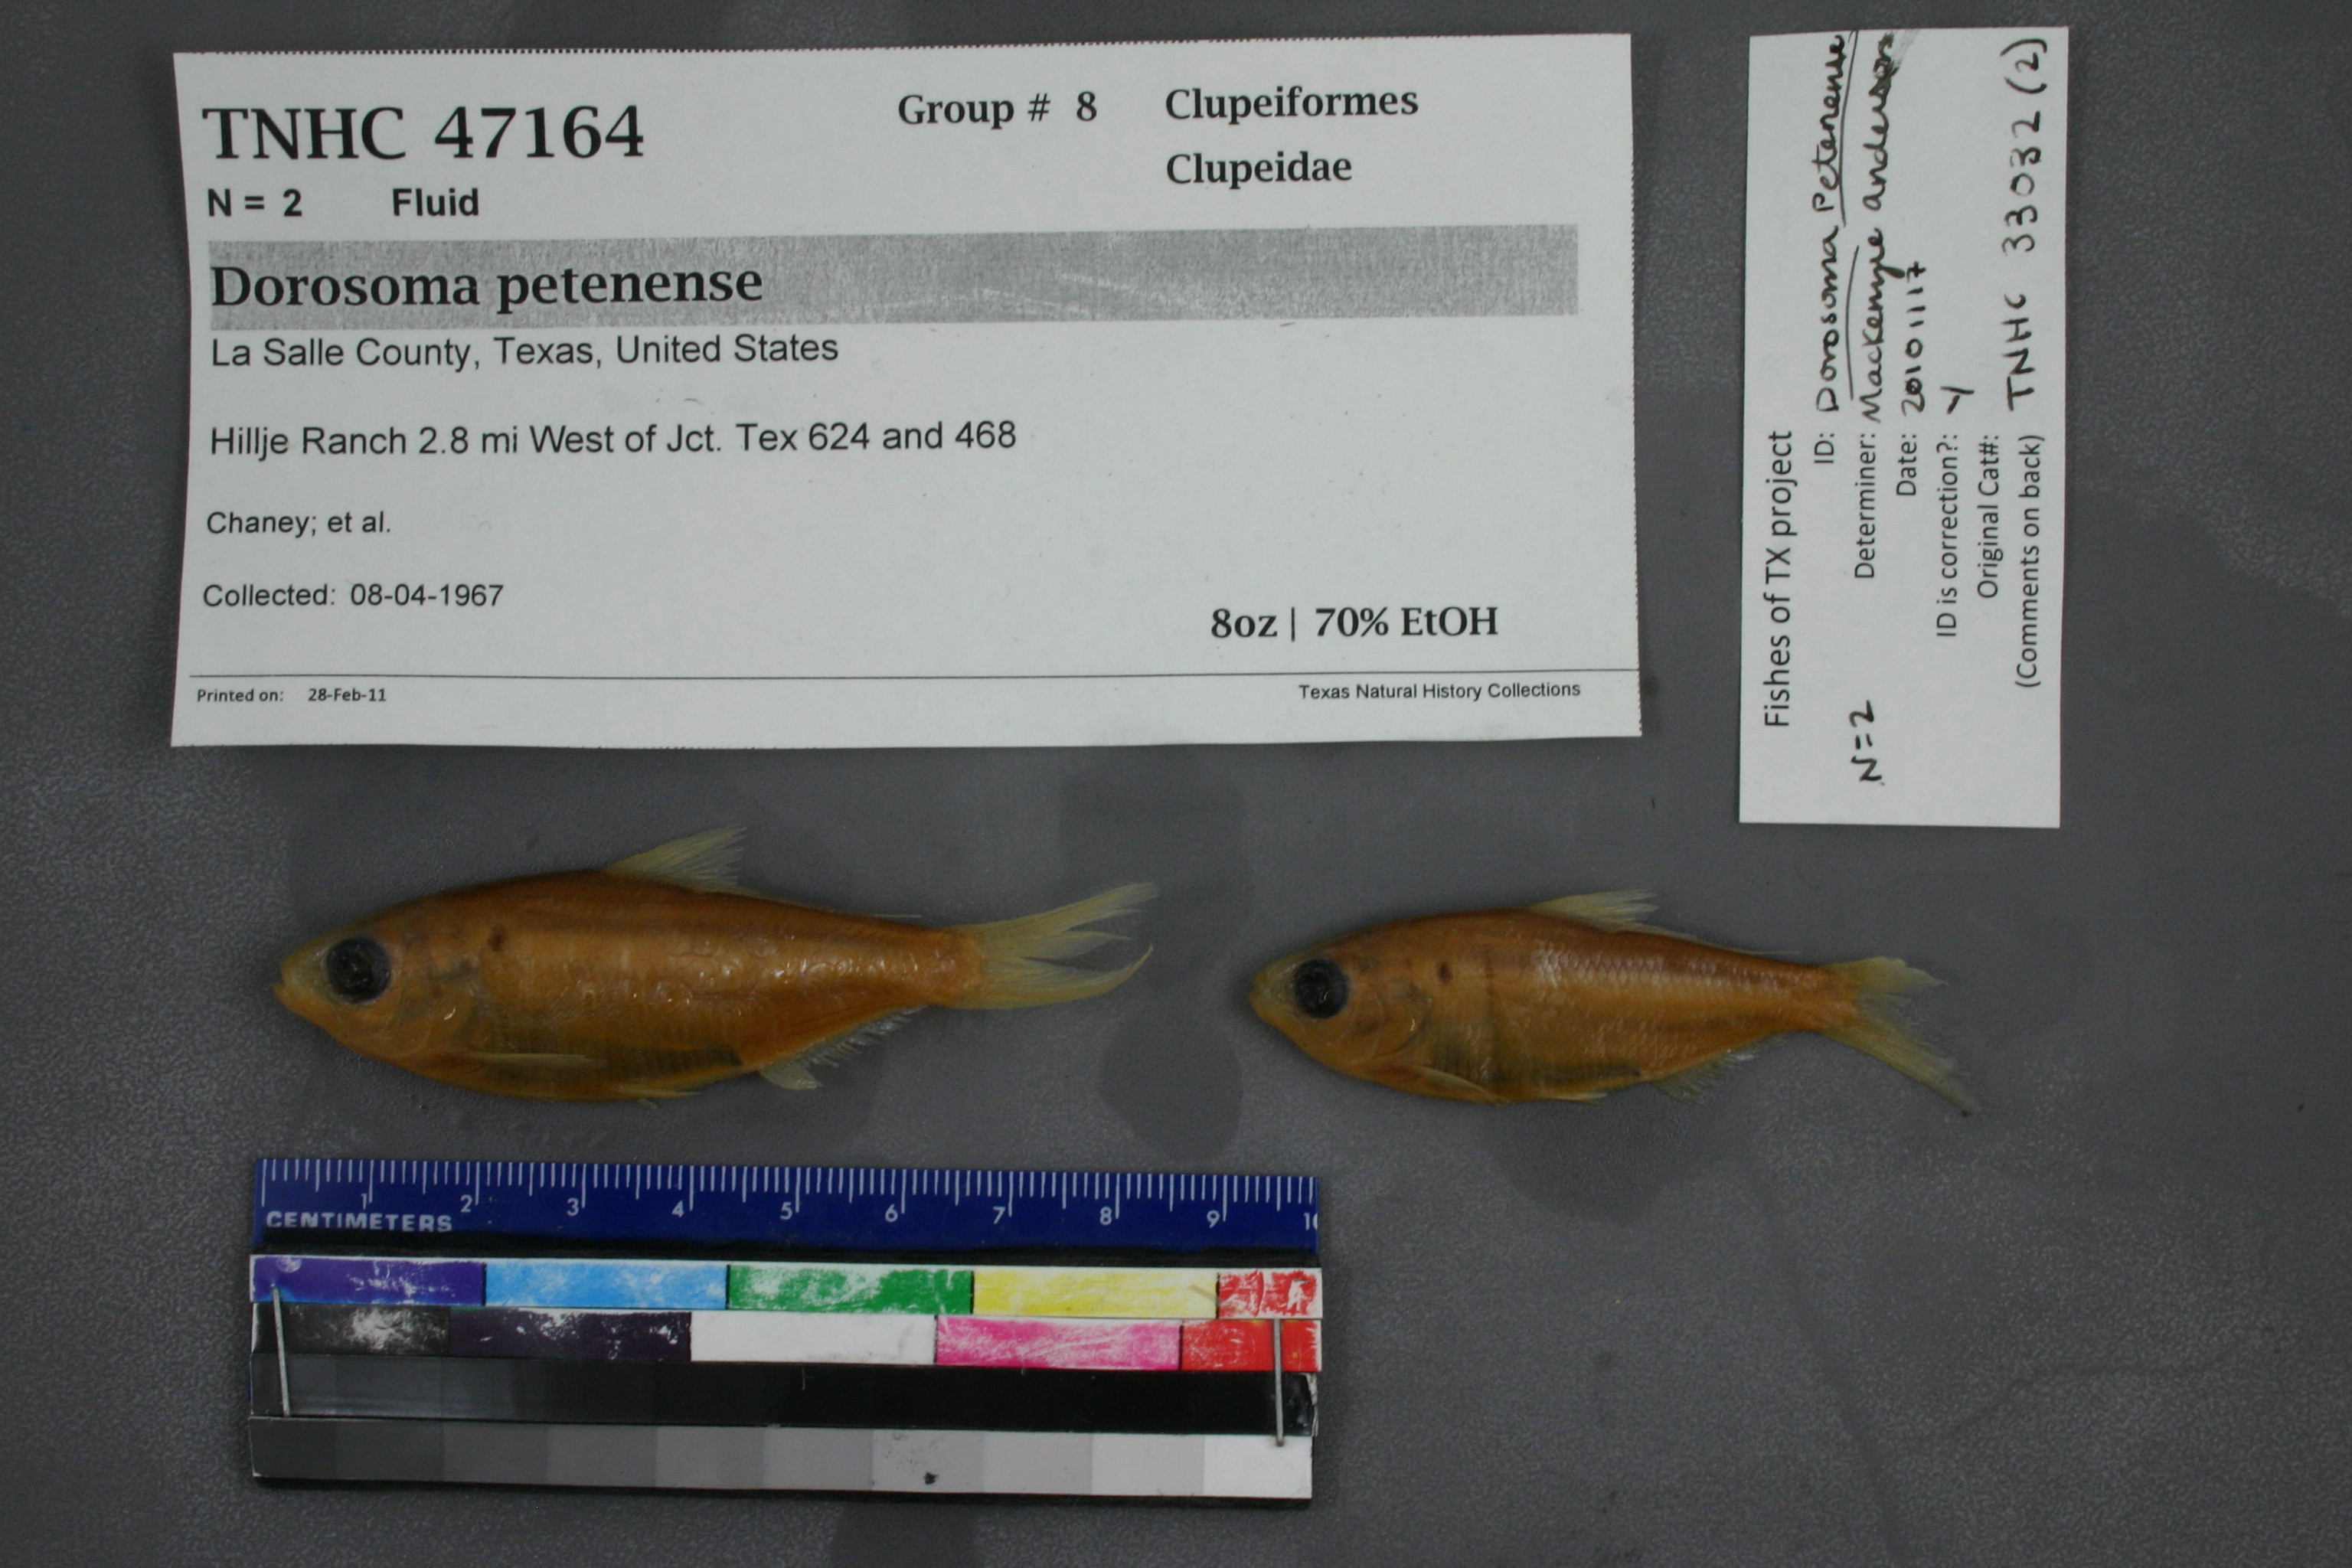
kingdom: Animalia
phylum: Chordata
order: Clupeiformes
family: Clupeidae
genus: Dorosoma
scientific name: Dorosoma petenense
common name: Threadfin shad
